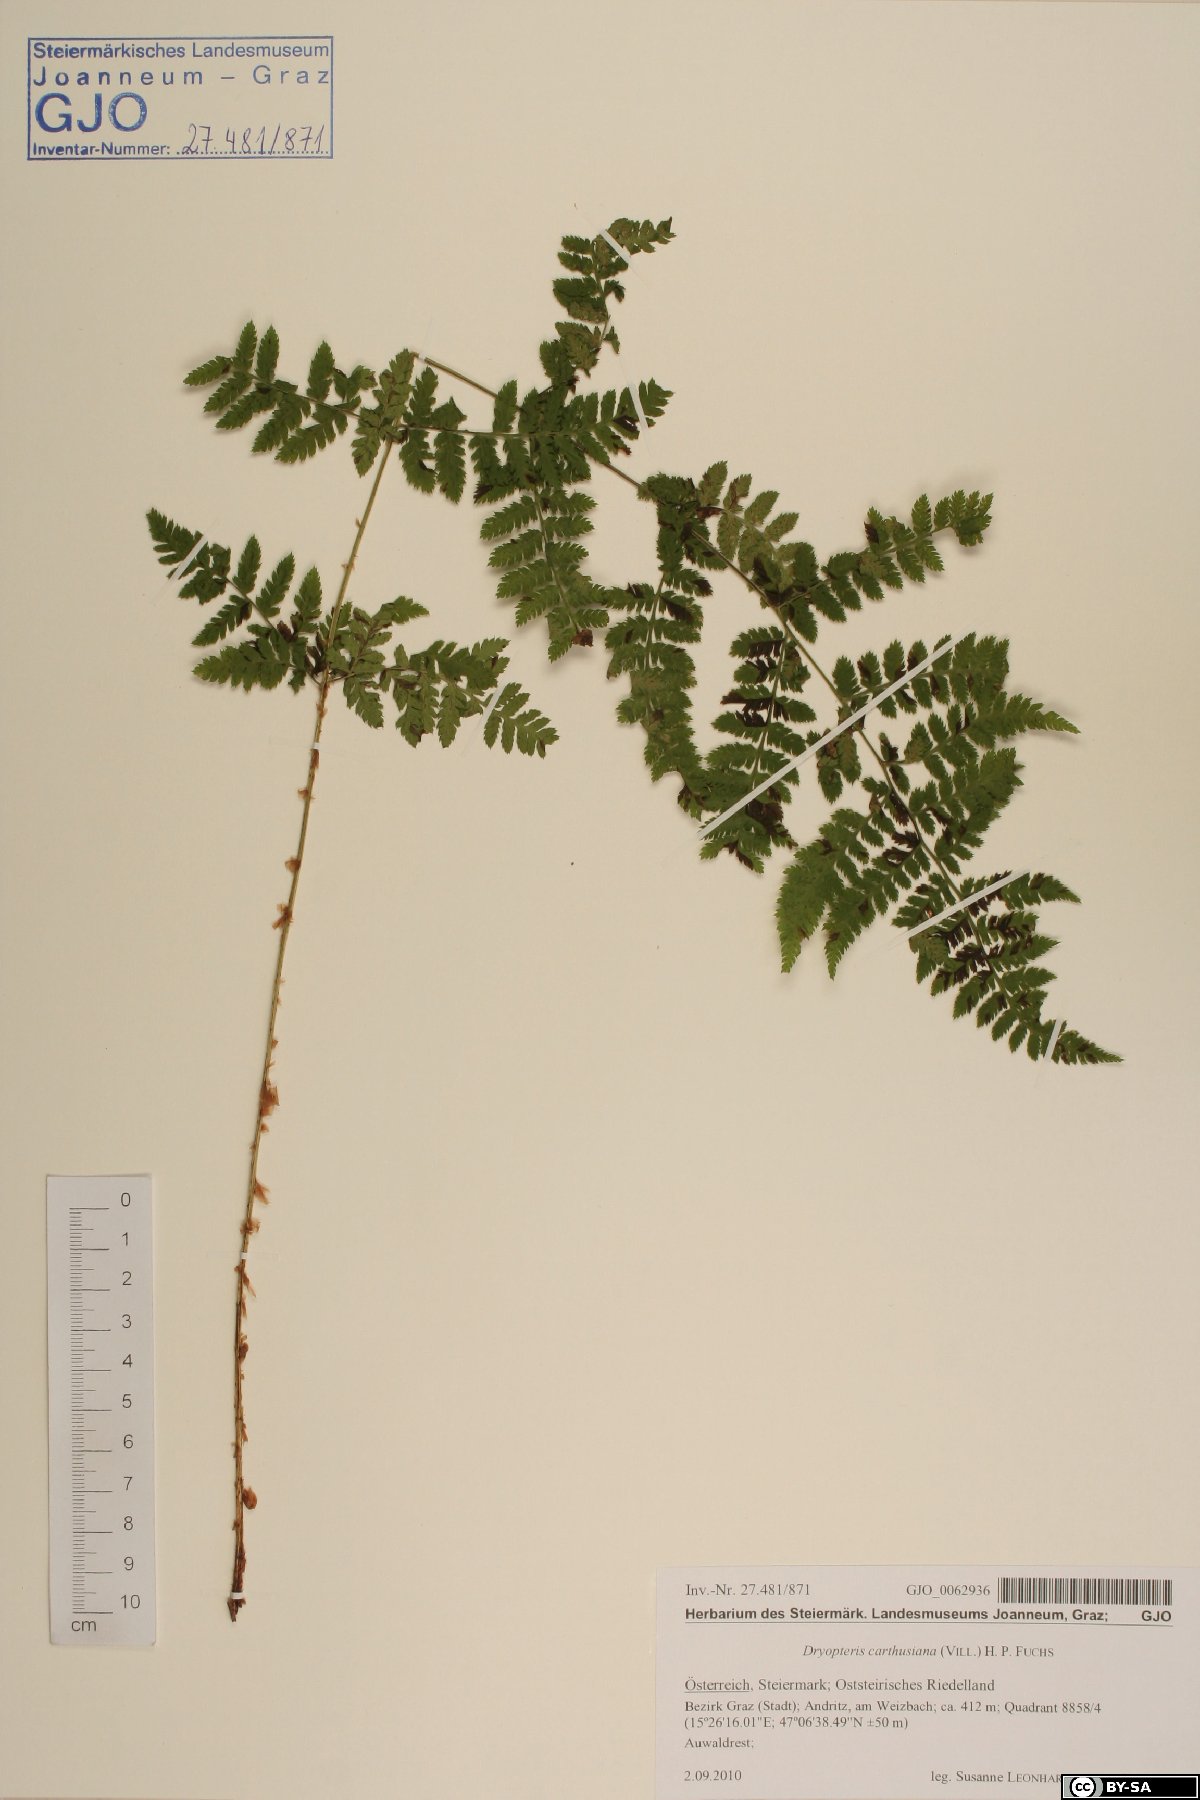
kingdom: Plantae
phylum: Tracheophyta
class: Polypodiopsida
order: Polypodiales
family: Dryopteridaceae
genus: Dryopteris
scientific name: Dryopteris carthusiana
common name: Narrow buckler-fern
